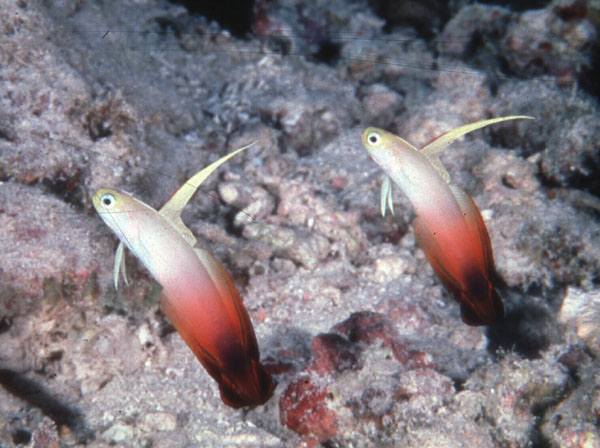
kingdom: Animalia
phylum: Chordata
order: Perciformes
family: Microdesmidae
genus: Nemateleotris
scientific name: Nemateleotris magnifica
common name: Fire goby
